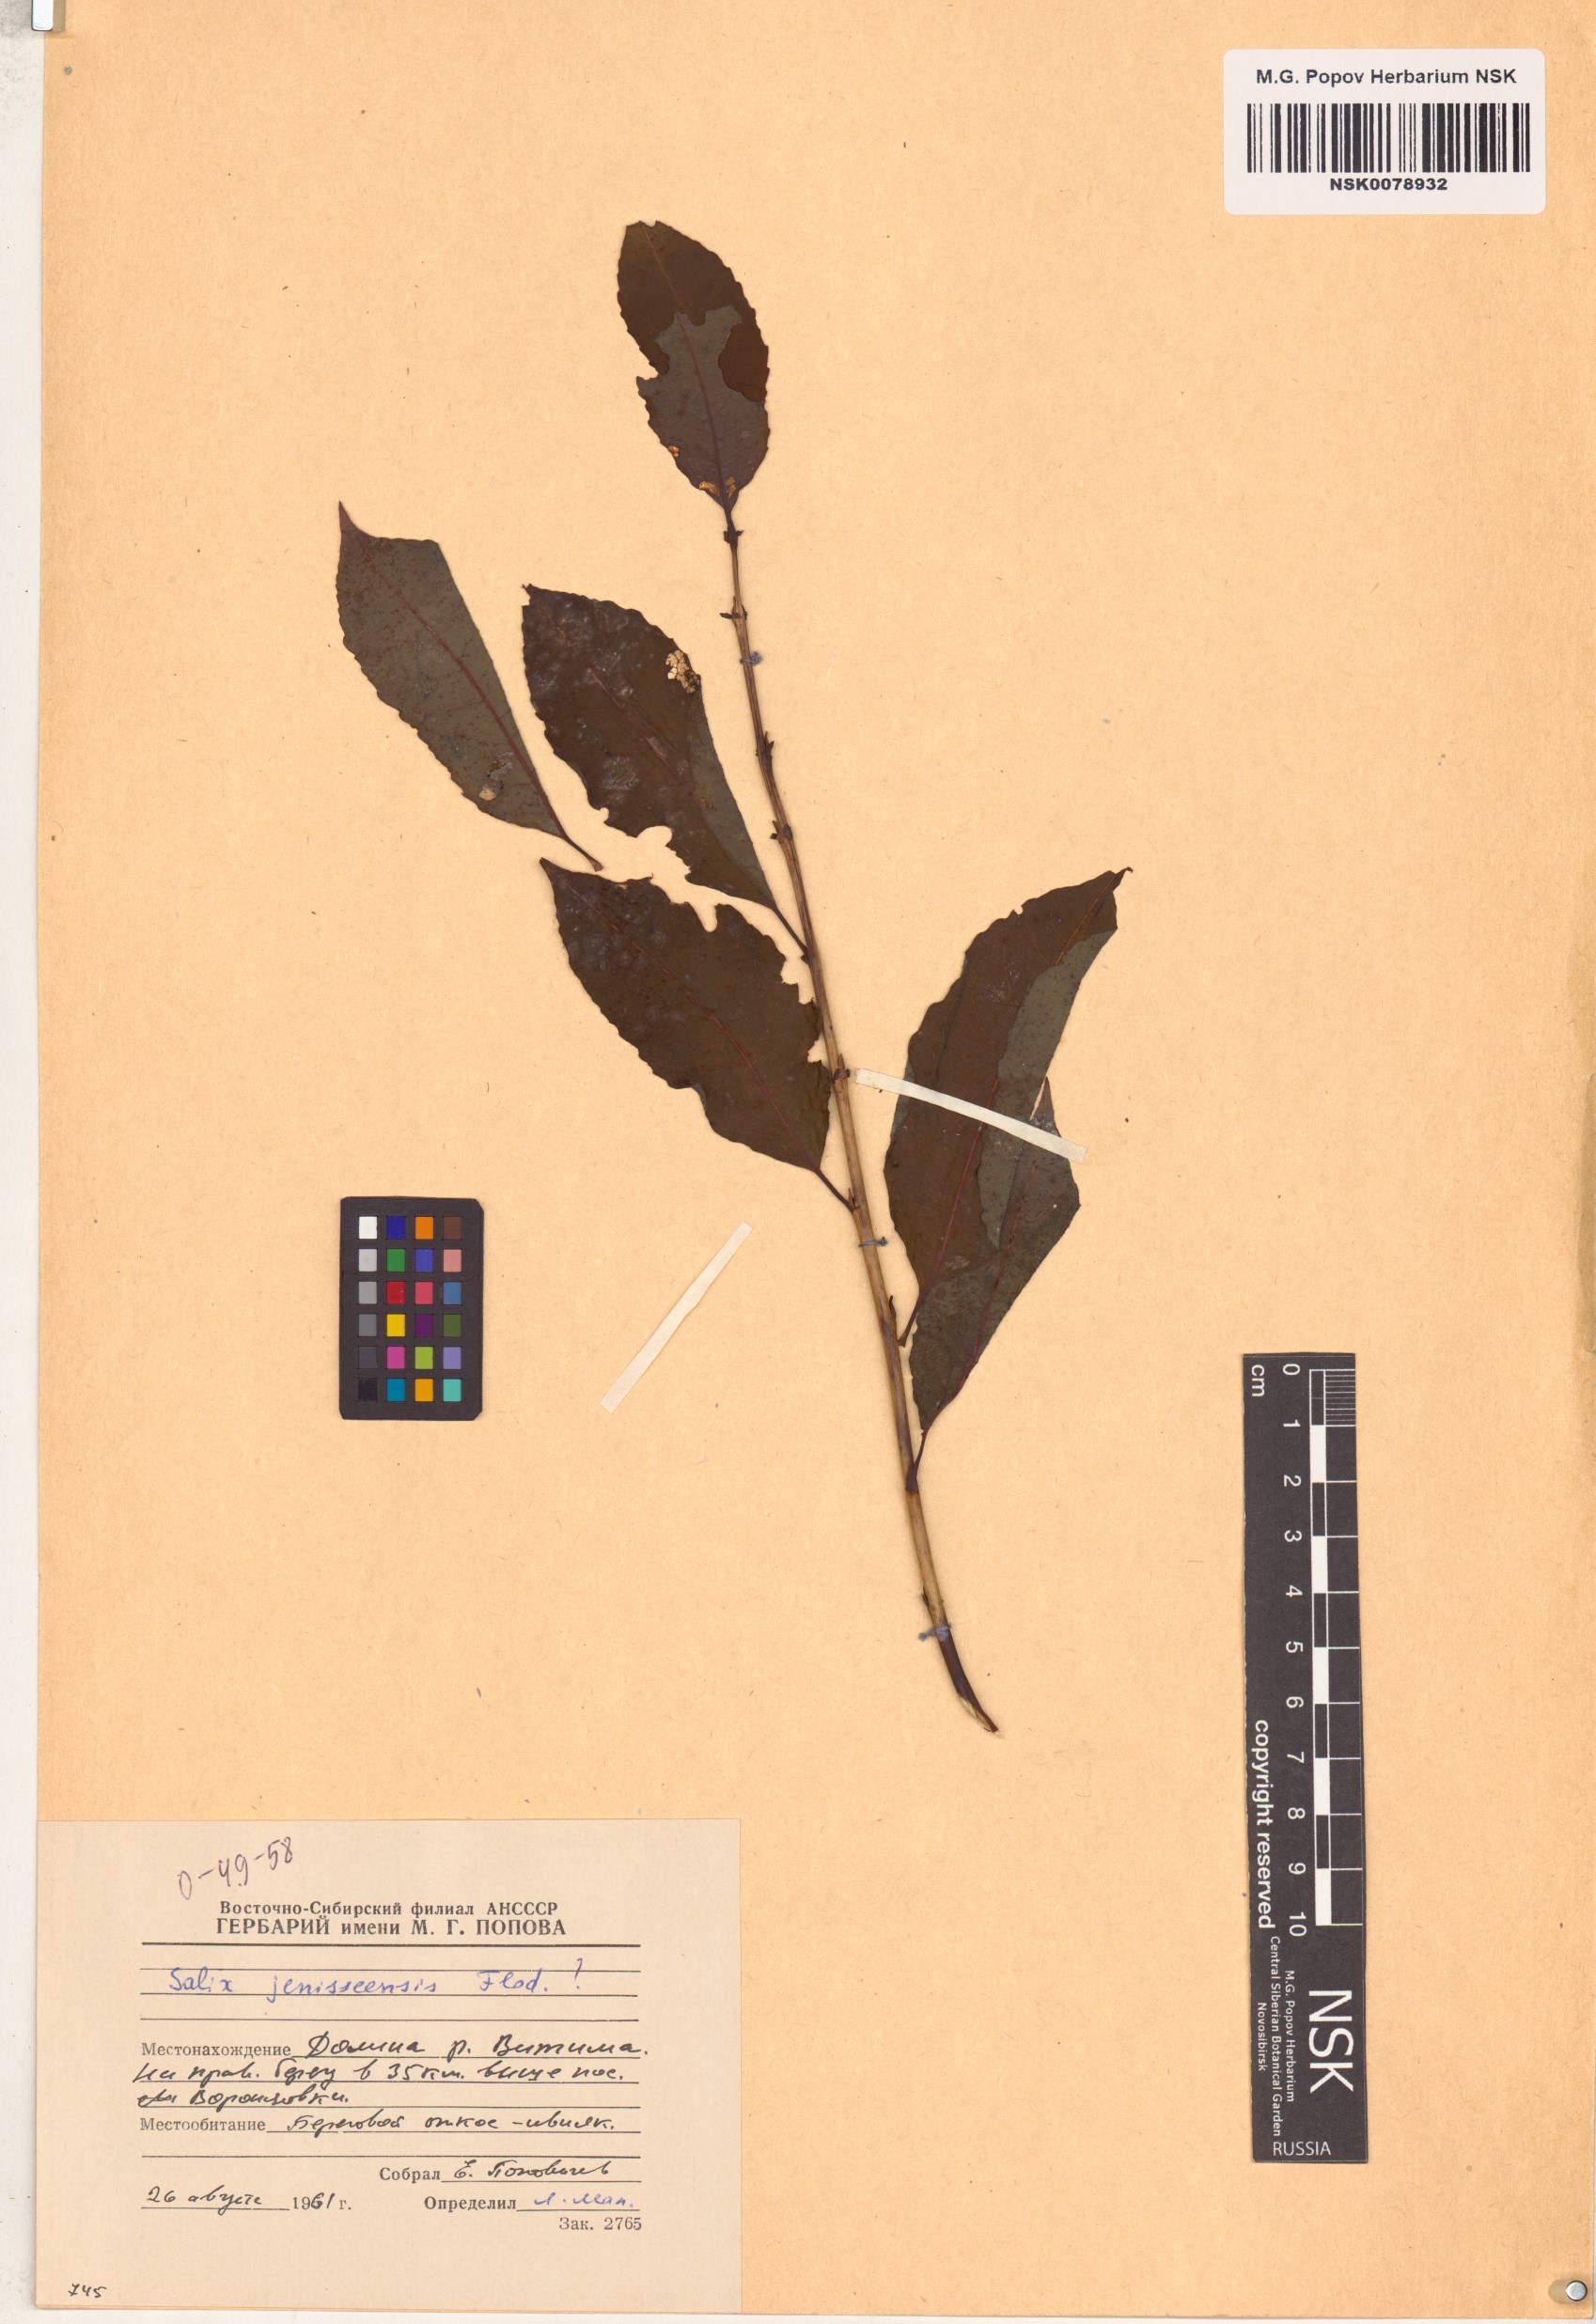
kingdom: Plantae
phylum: Tracheophyta
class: Magnoliopsida
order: Malpighiales
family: Salicaceae
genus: Salix
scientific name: Salix jenisseensis
